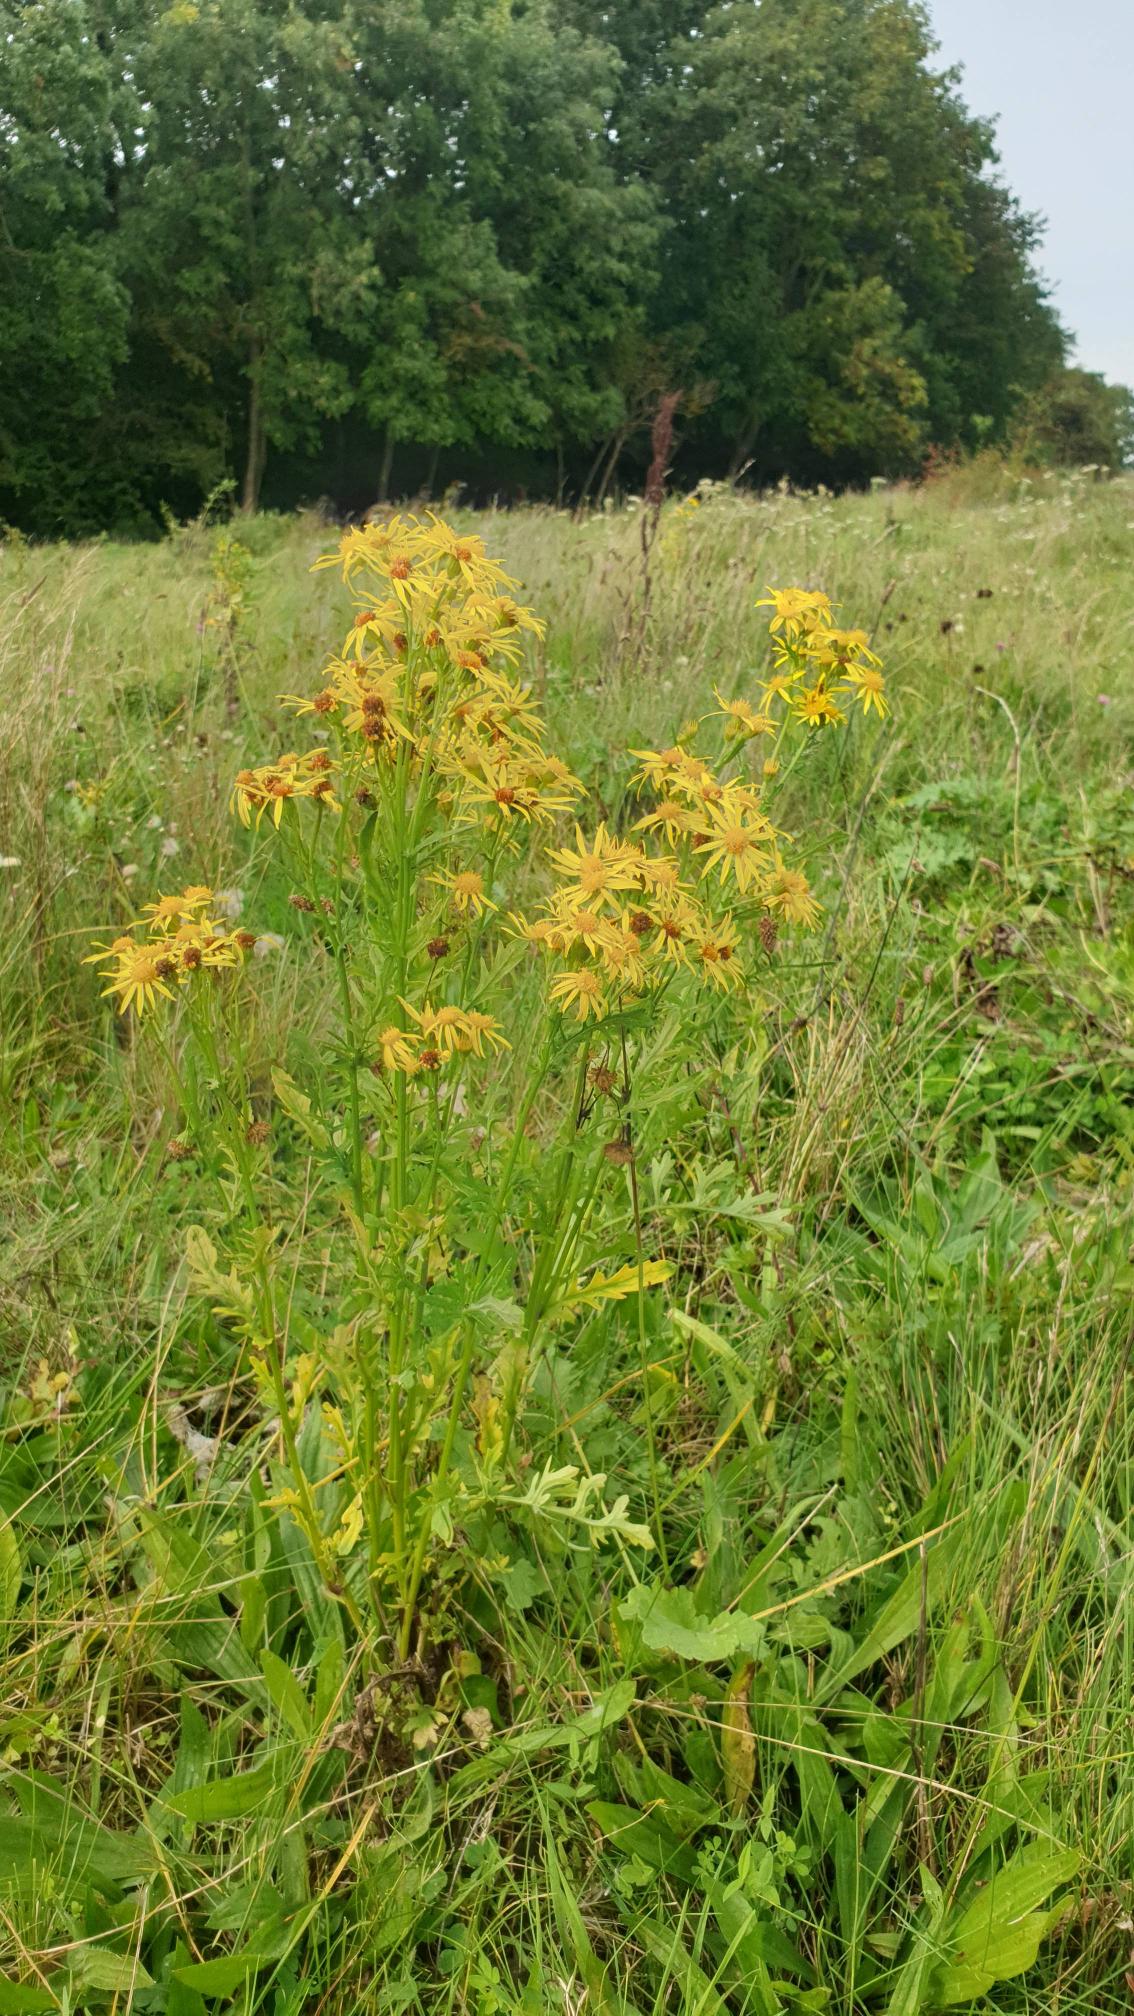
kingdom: Plantae
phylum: Tracheophyta
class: Magnoliopsida
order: Asterales
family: Asteraceae
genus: Jacobaea
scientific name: Jacobaea vulgaris
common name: Eng-brandbæger
